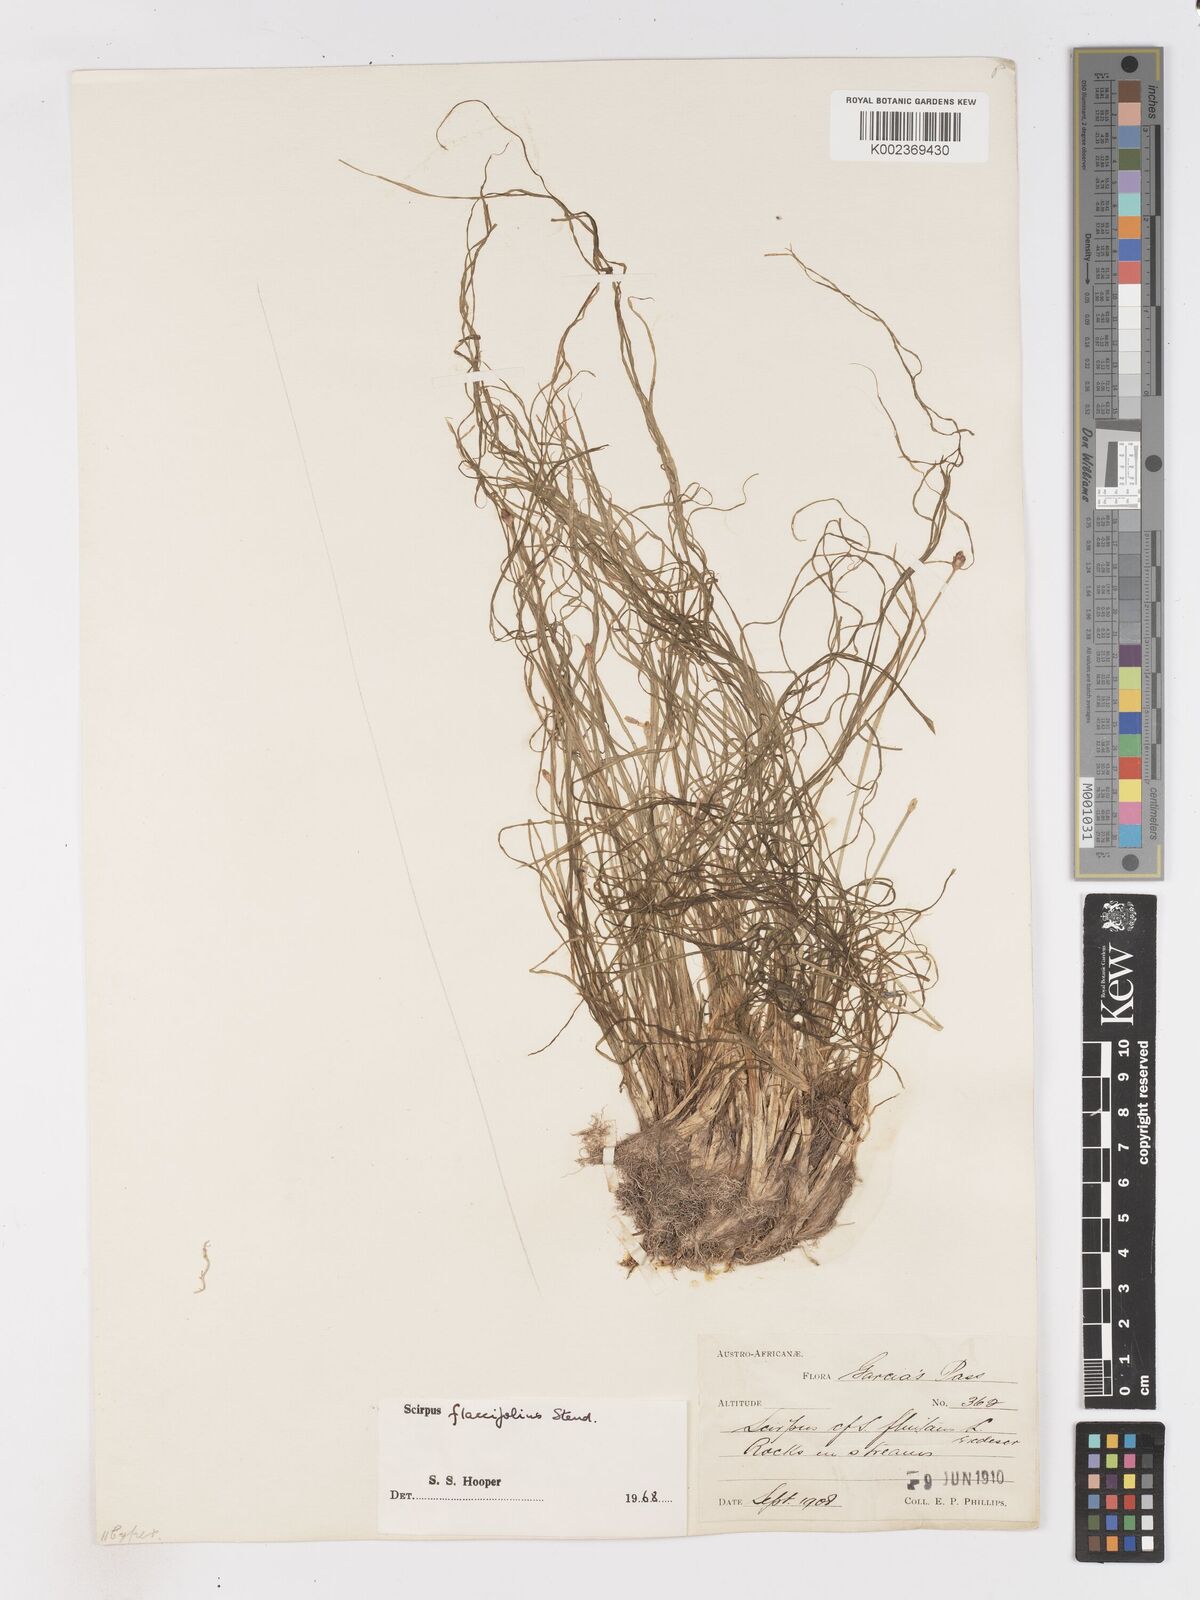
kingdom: Plantae
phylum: Tracheophyta
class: Liliopsida
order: Poales
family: Cyperaceae
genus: Isolepis
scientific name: Isolepis digitata
